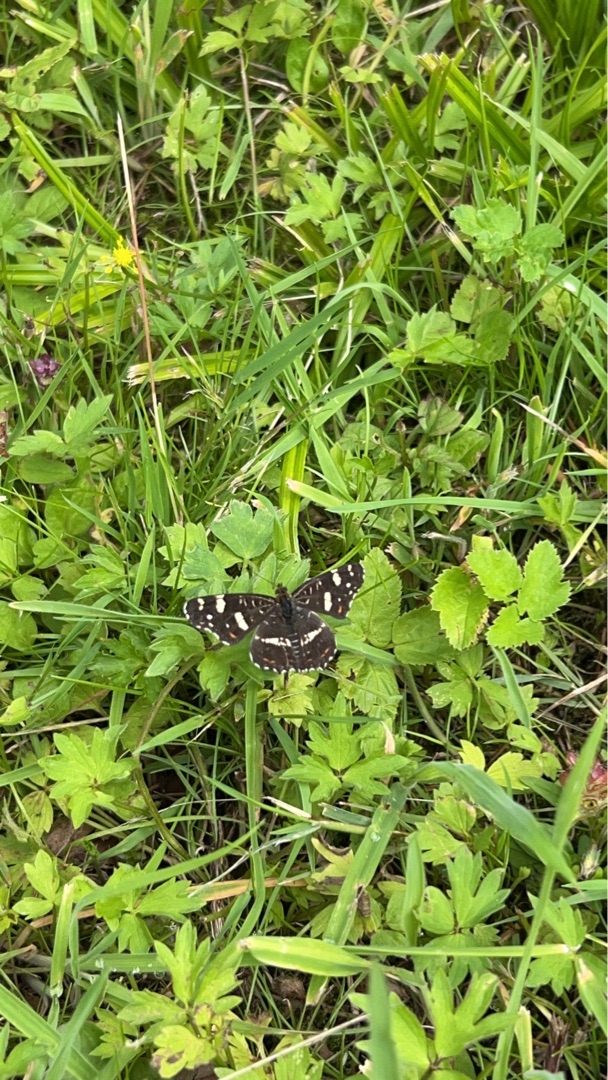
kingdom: Animalia
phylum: Arthropoda
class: Insecta
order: Lepidoptera
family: Nymphalidae
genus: Araschnia
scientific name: Araschnia levana
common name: Nældesommerfugl
